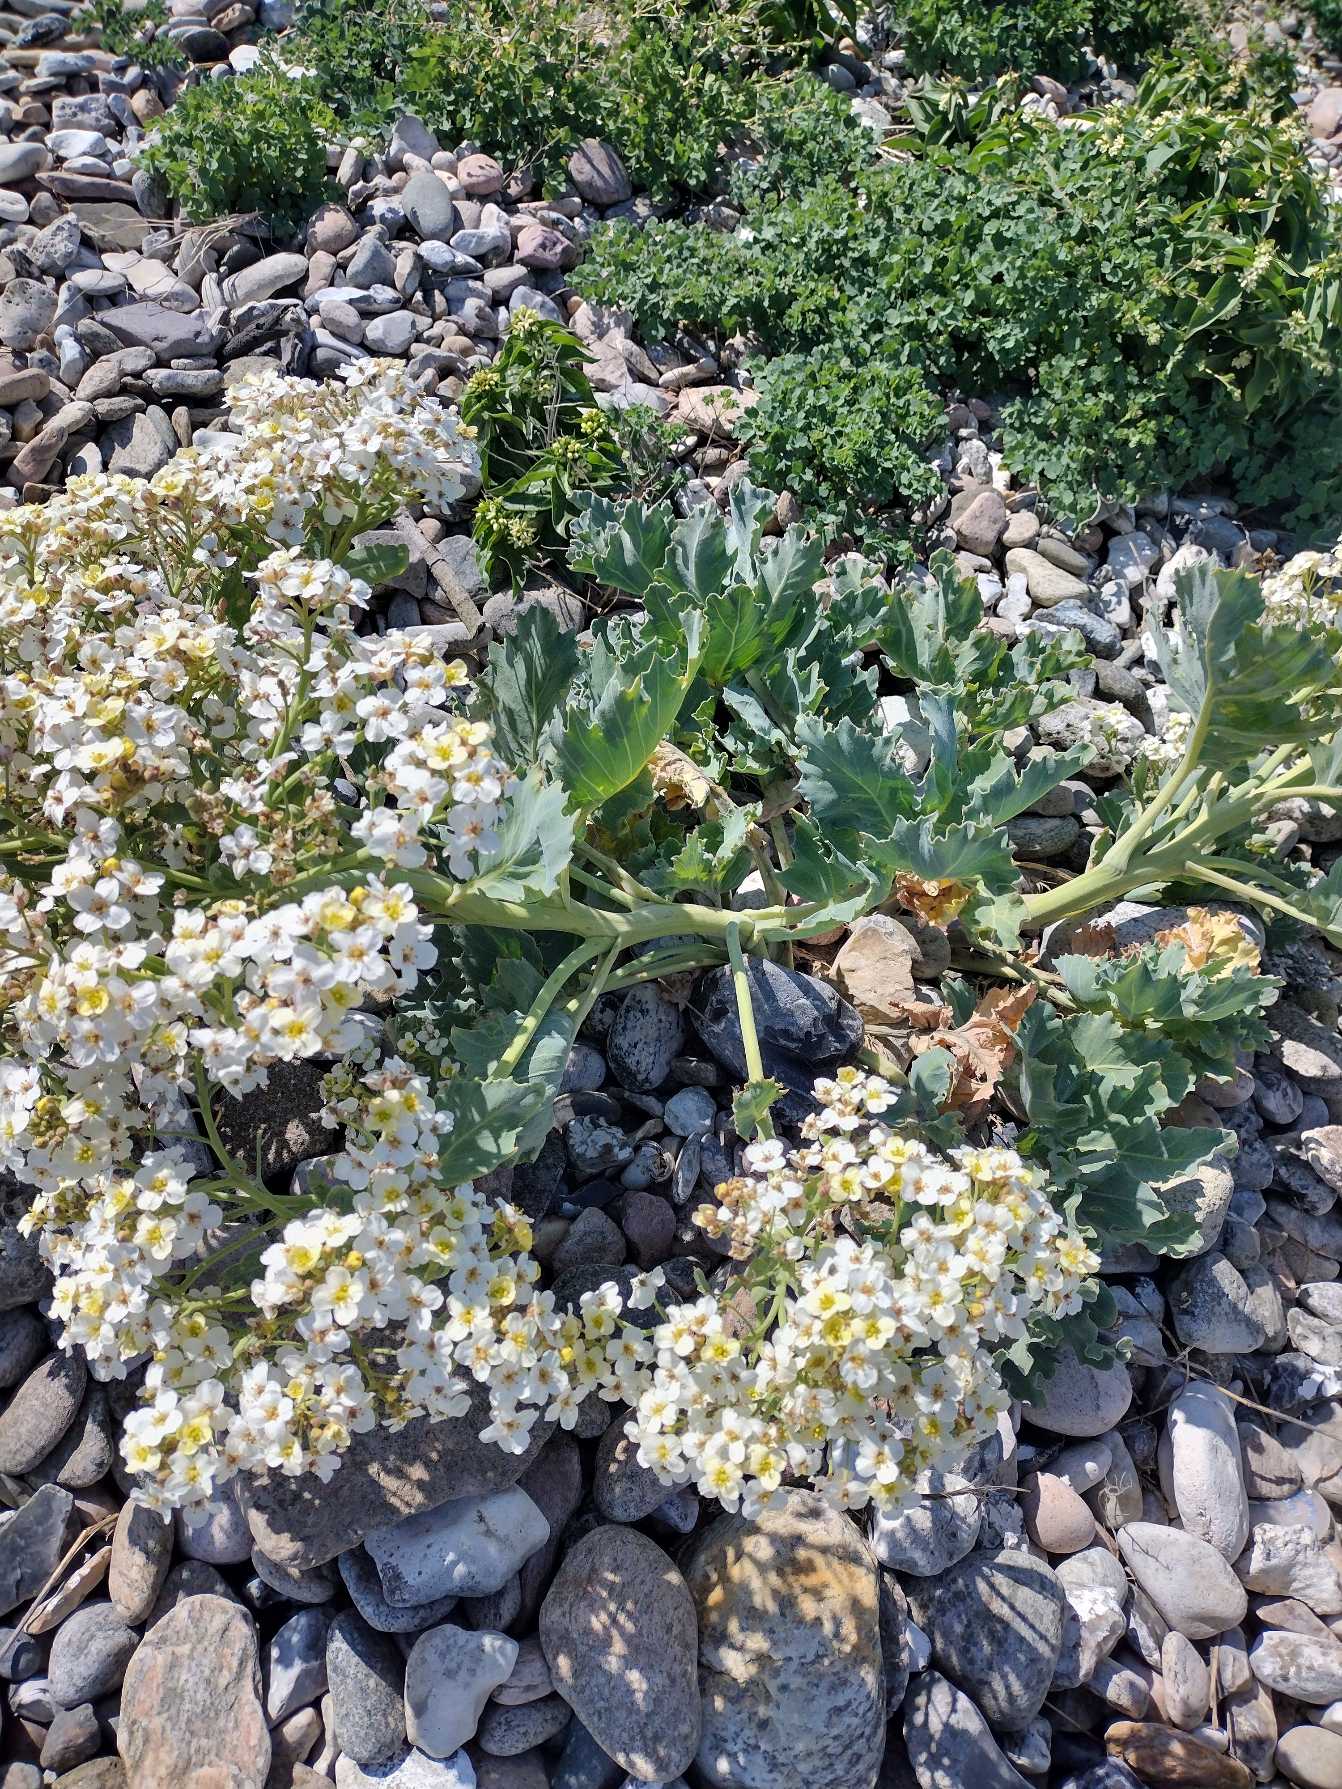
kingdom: Plantae
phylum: Tracheophyta
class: Magnoliopsida
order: Brassicales
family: Brassicaceae
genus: Crambe
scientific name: Crambe maritima
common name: Strandkål
